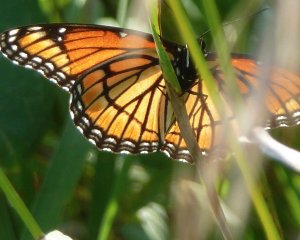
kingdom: Animalia
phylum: Arthropoda
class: Insecta
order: Lepidoptera
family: Nymphalidae
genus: Limenitis
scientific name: Limenitis archippus
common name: Viceroy
